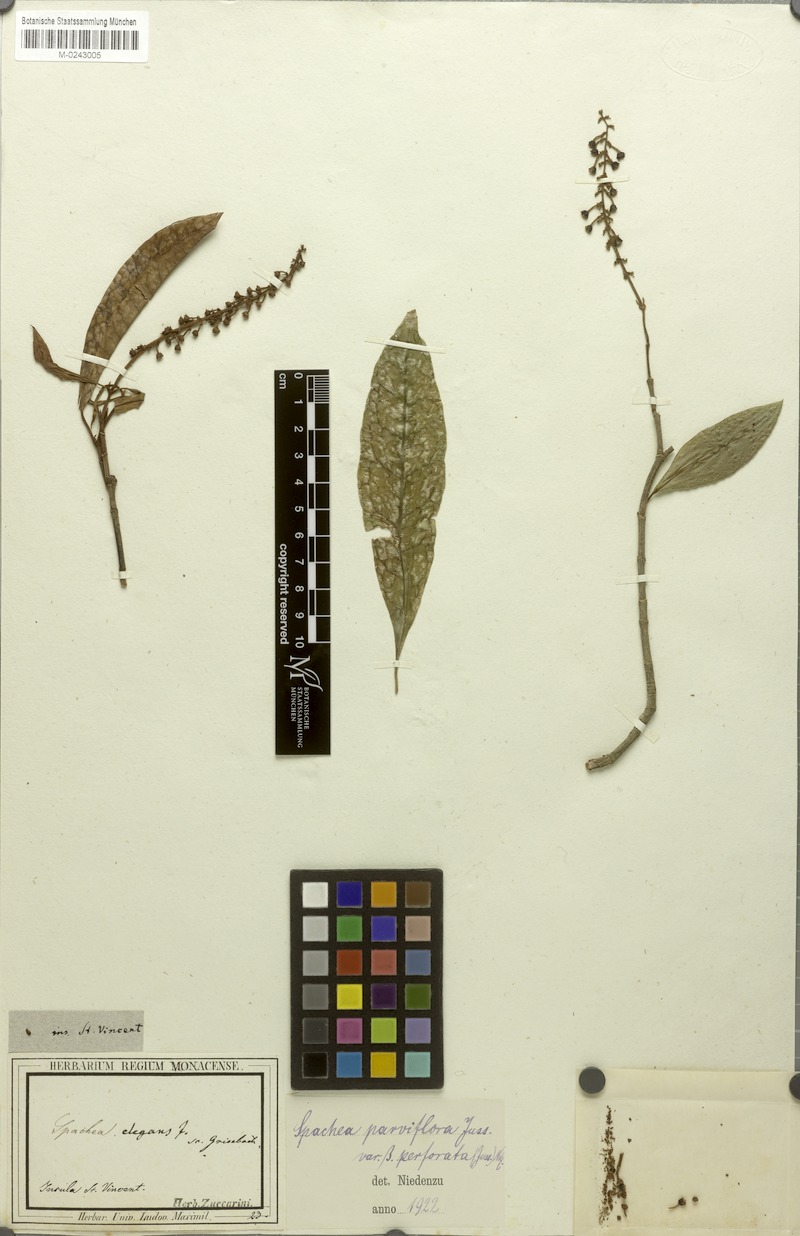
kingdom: Plantae
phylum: Tracheophyta
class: Magnoliopsida
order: Malpighiales
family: Malpighiaceae
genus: Spachea
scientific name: Spachea elegans
